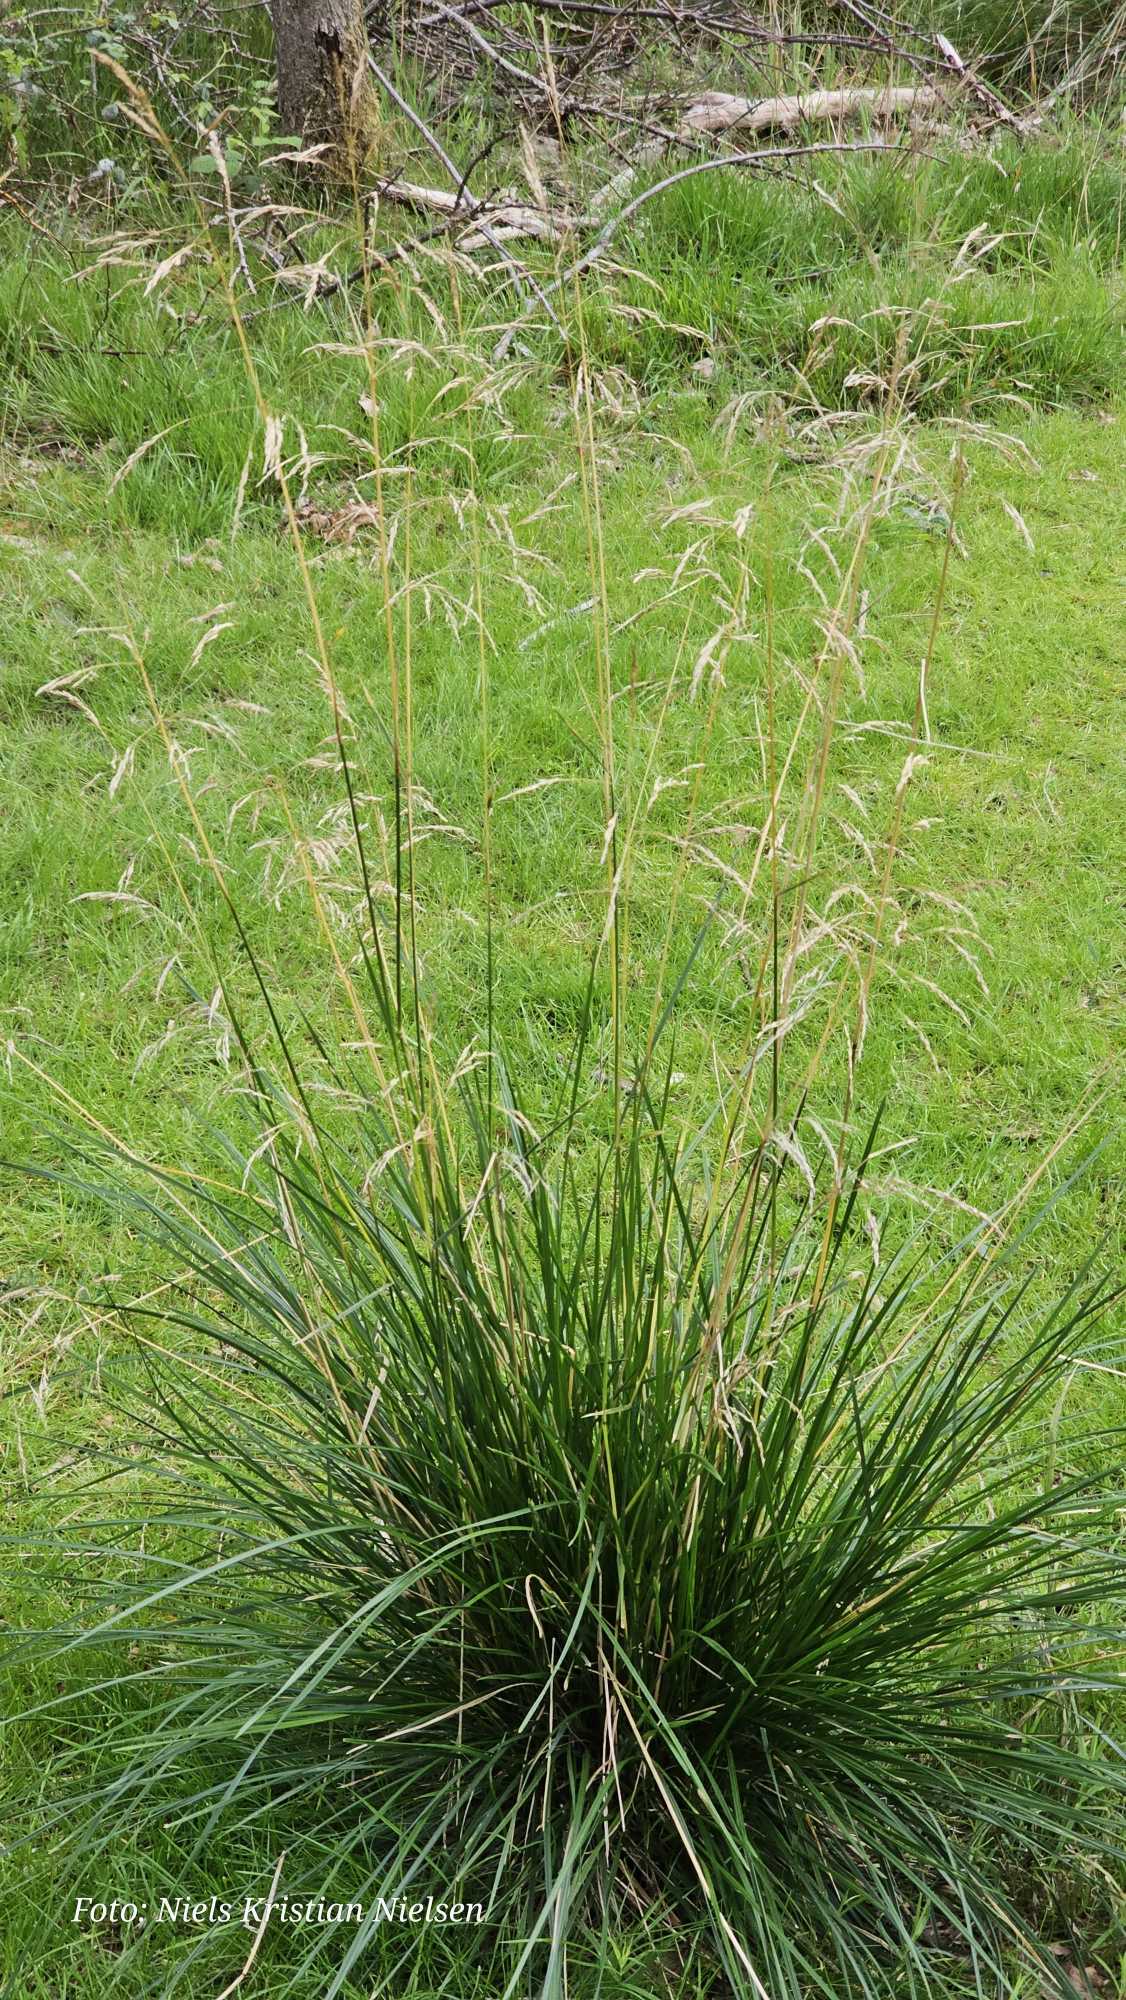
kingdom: Plantae
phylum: Tracheophyta
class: Liliopsida
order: Poales
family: Poaceae
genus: Deschampsia
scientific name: Deschampsia cespitosa
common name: Mose-bunke
